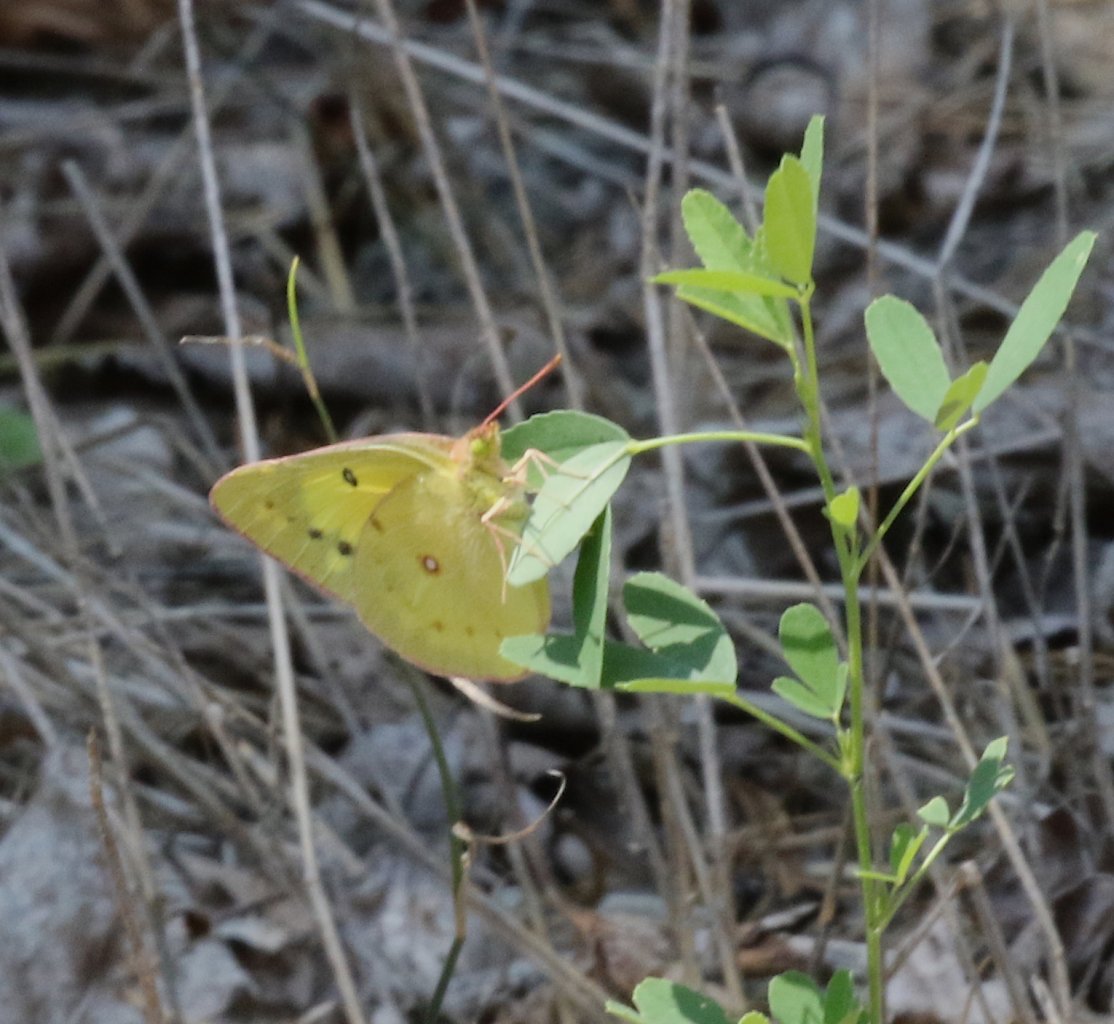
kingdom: Animalia
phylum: Arthropoda
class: Insecta
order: Lepidoptera
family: Pieridae
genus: Colias
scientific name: Colias philodice
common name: Clouded Sulphur
